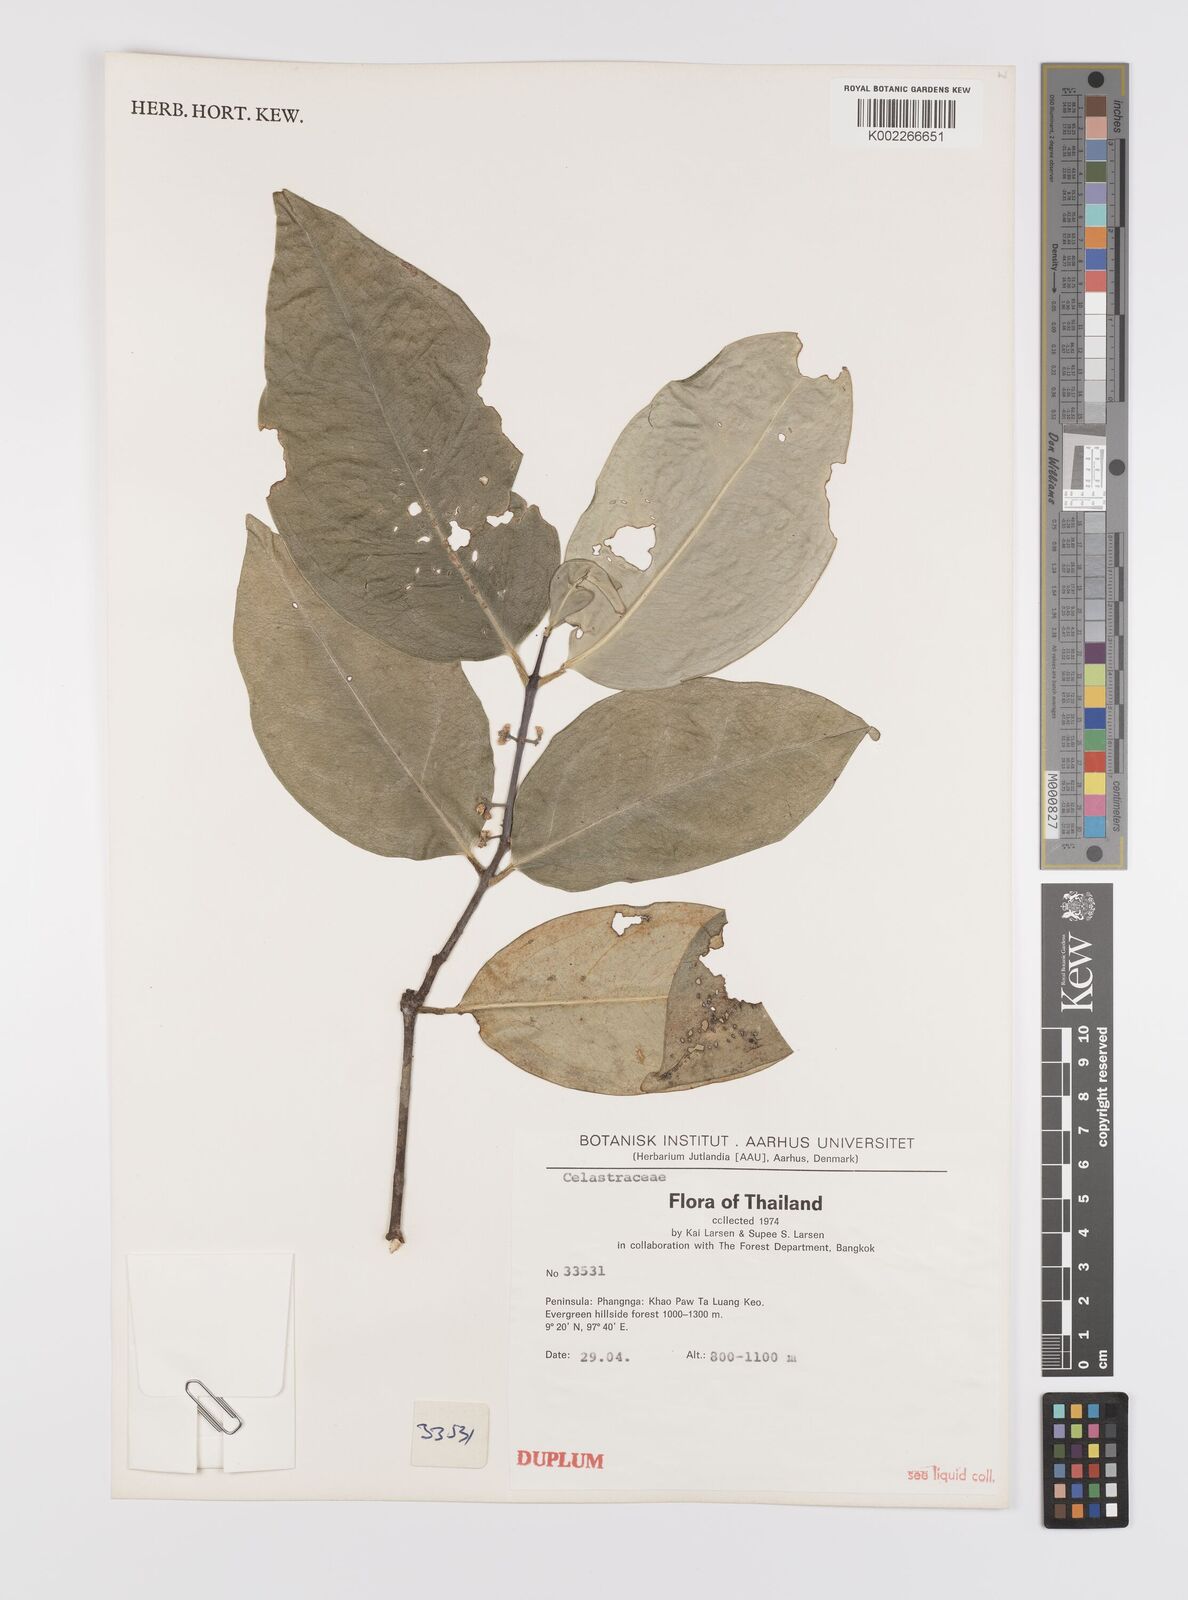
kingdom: Plantae
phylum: Tracheophyta
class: Magnoliopsida
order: Celastrales
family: Celastraceae
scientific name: Celastraceae
